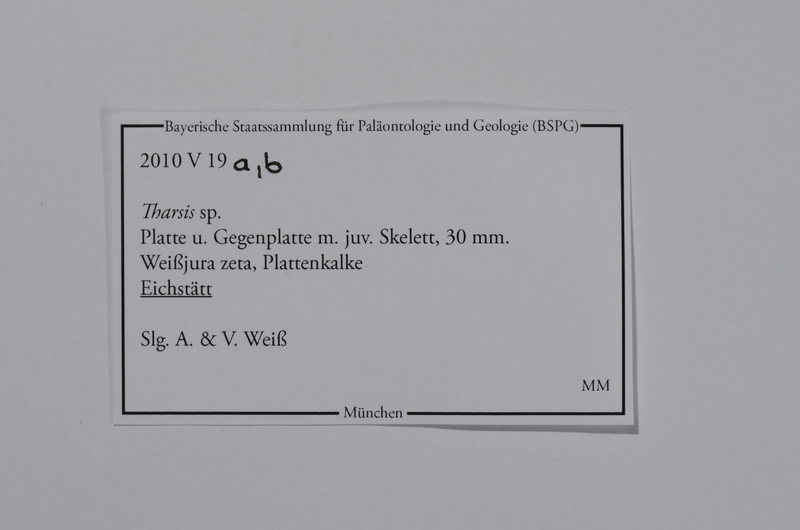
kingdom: Animalia
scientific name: Animalia
